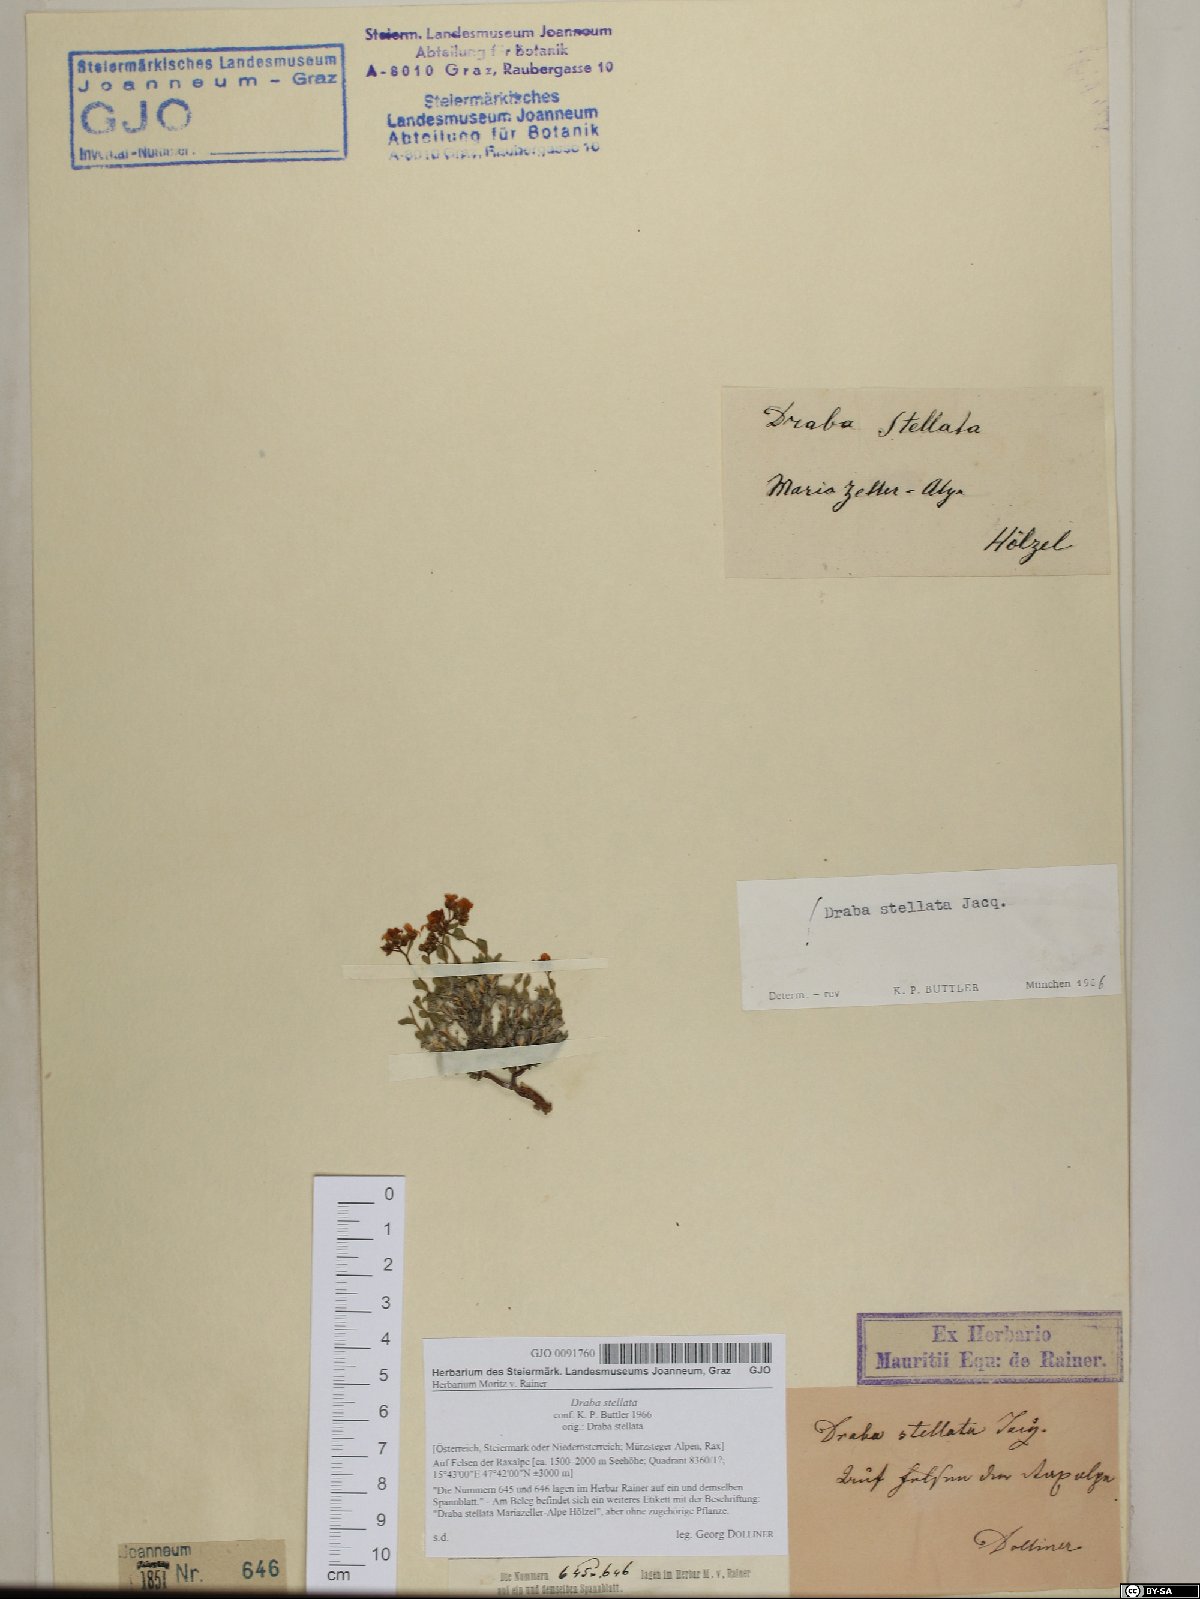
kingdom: Plantae
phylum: Tracheophyta
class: Magnoliopsida
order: Brassicales
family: Brassicaceae
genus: Draba
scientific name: Draba stellata
